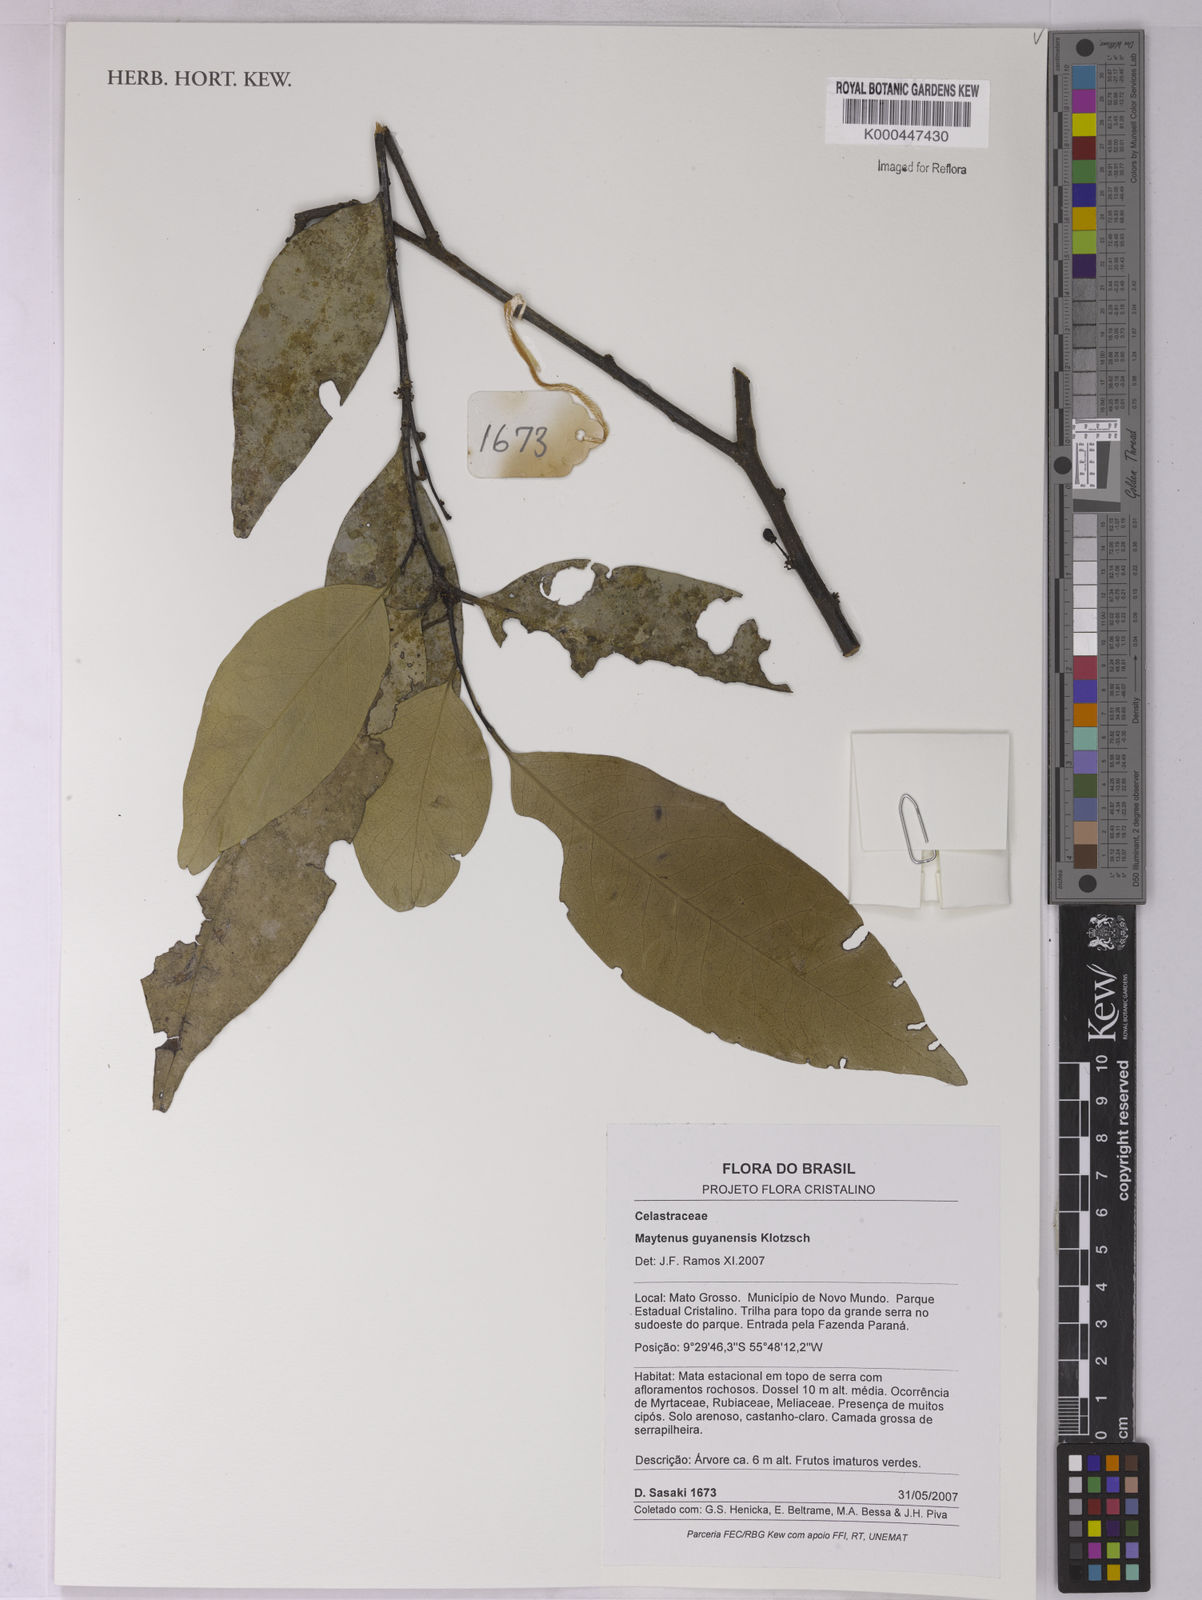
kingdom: Plantae
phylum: Tracheophyta
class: Magnoliopsida
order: Celastrales
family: Celastraceae
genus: Monteverdia
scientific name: Monteverdia guyanensis
